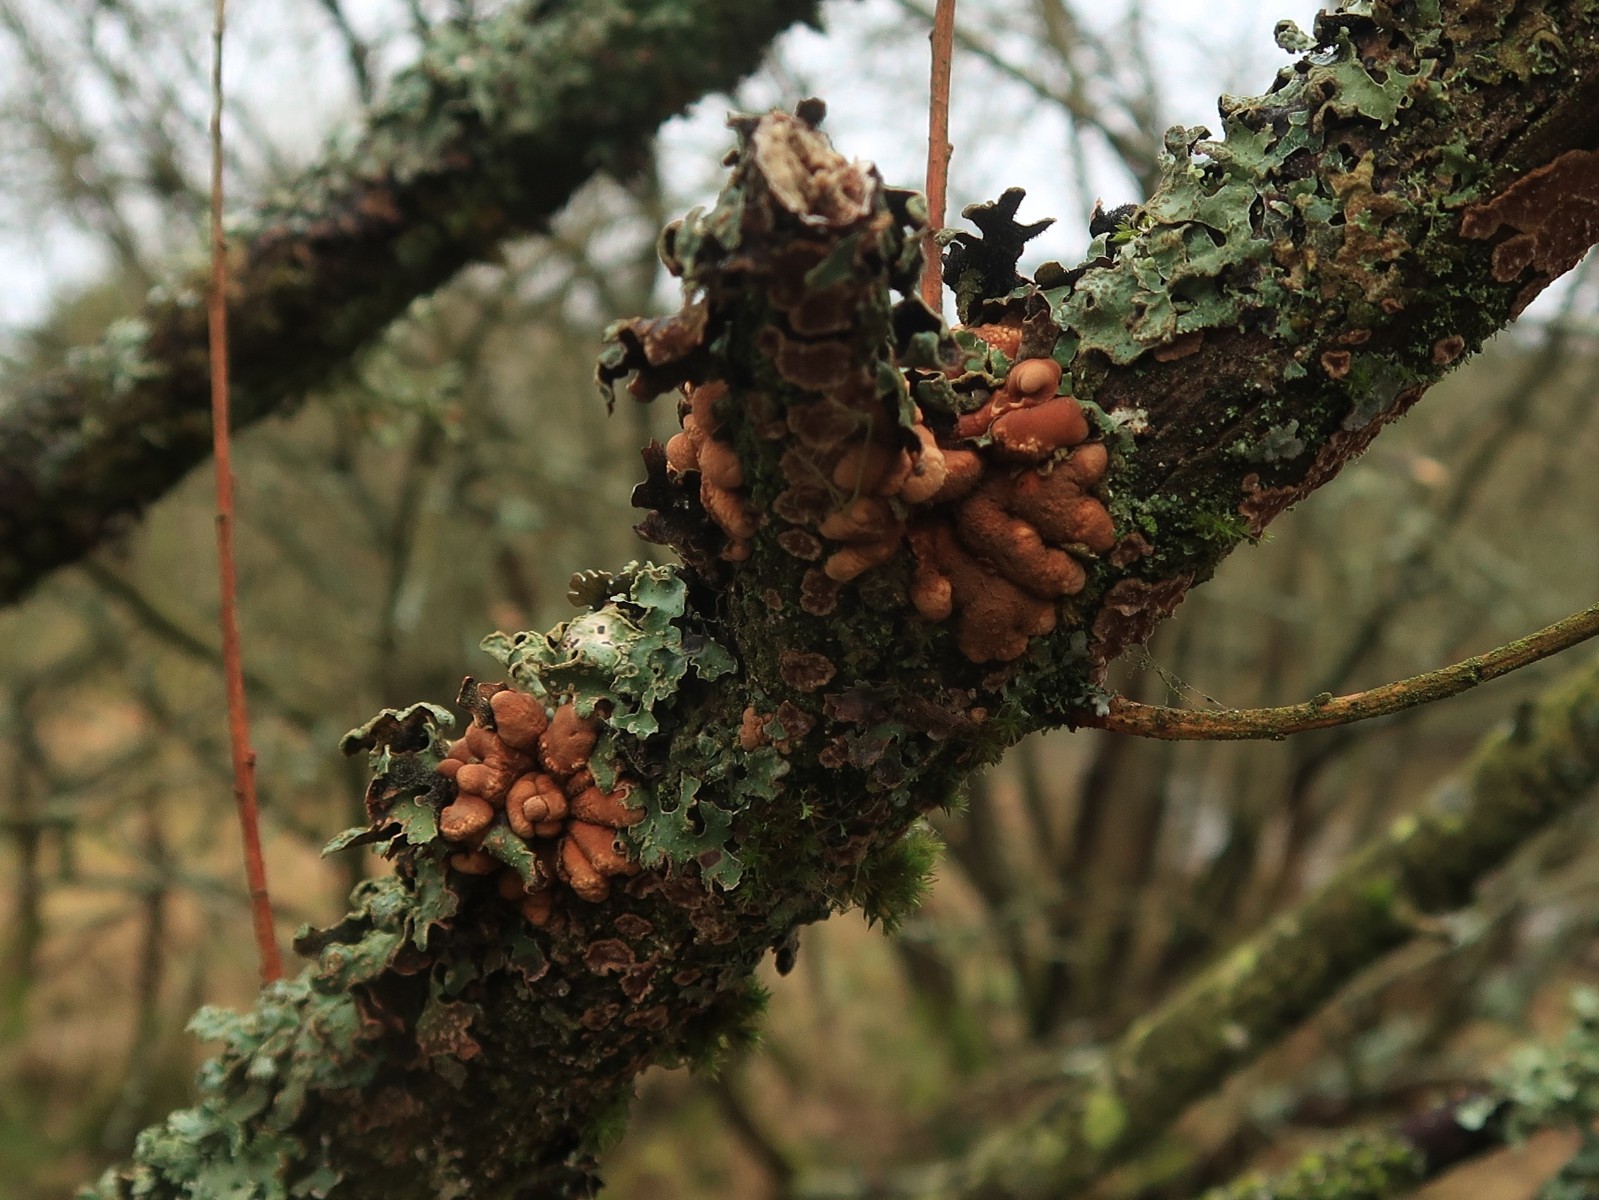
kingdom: Fungi
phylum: Ascomycota
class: Sordariomycetes
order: Hypocreales
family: Hypocreaceae
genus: Hypocreopsis
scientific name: Hypocreopsis lichenoides
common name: pilfinger
